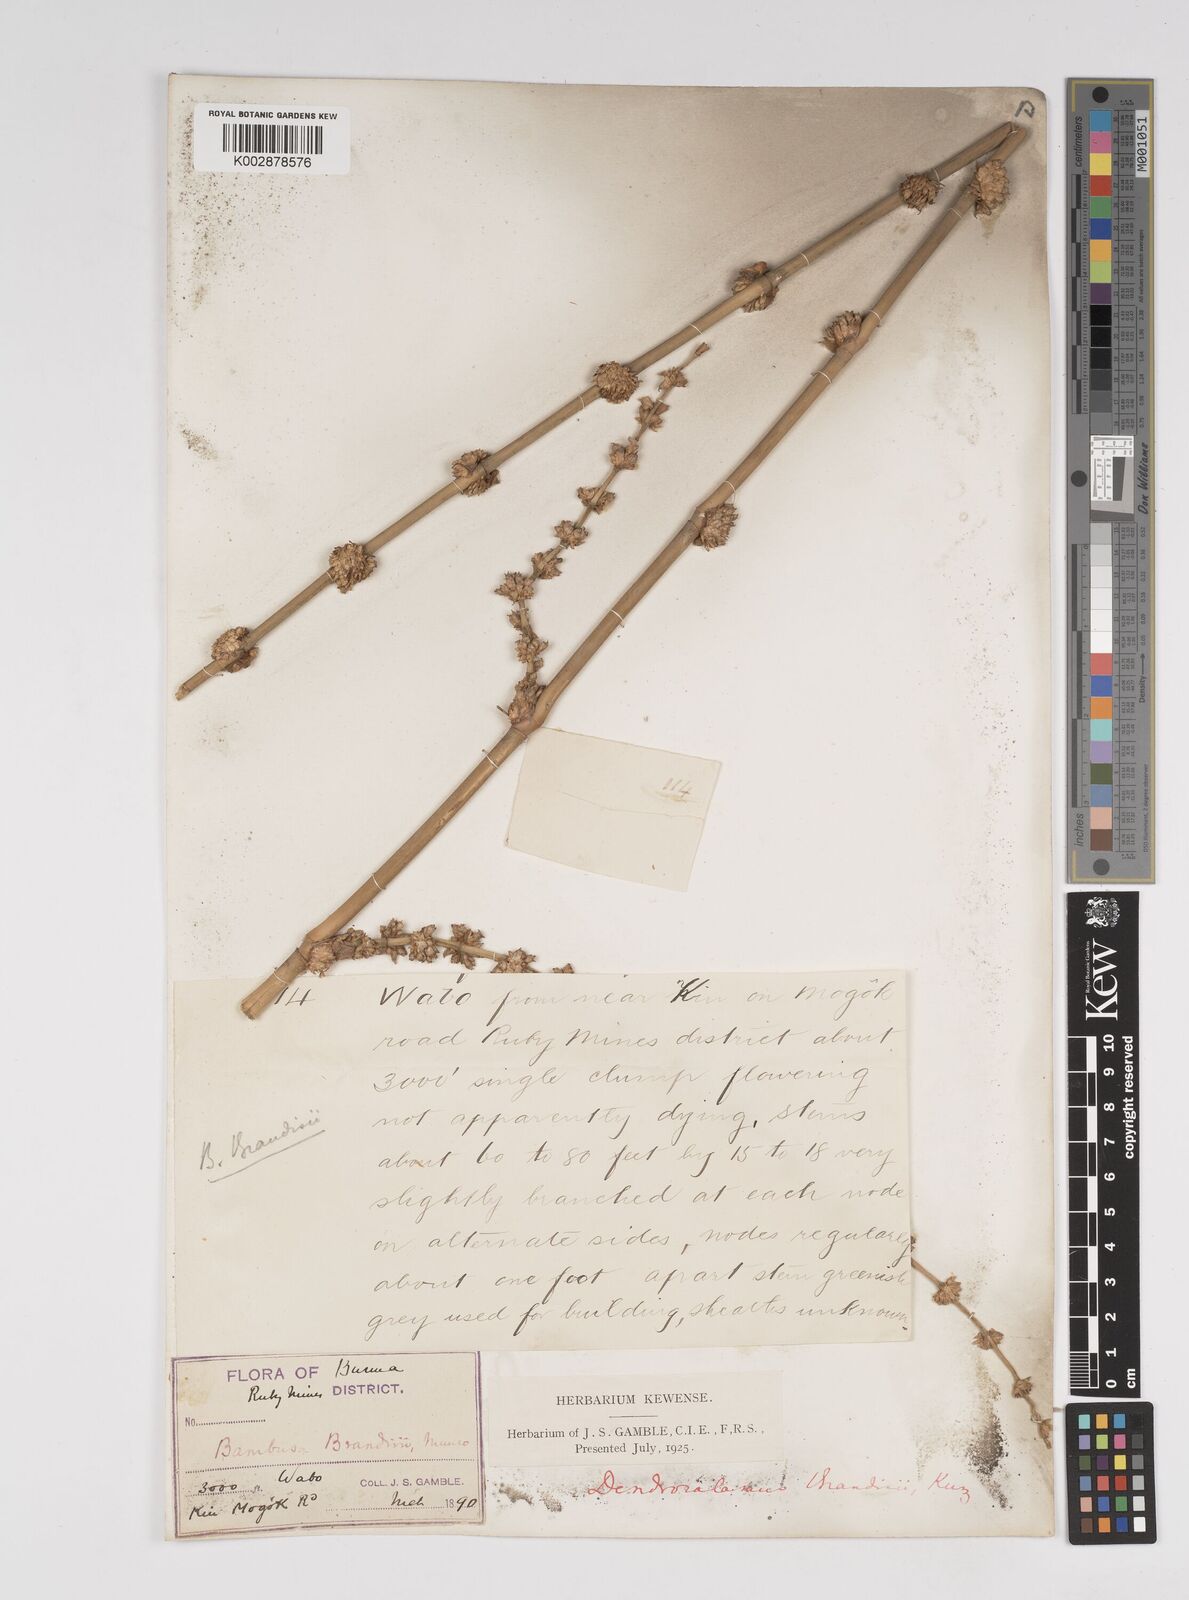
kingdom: Plantae
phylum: Tracheophyta
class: Liliopsida
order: Poales
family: Poaceae
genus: Dendrocalamus
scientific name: Dendrocalamus brandisii
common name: Velvetleaf bamboo
